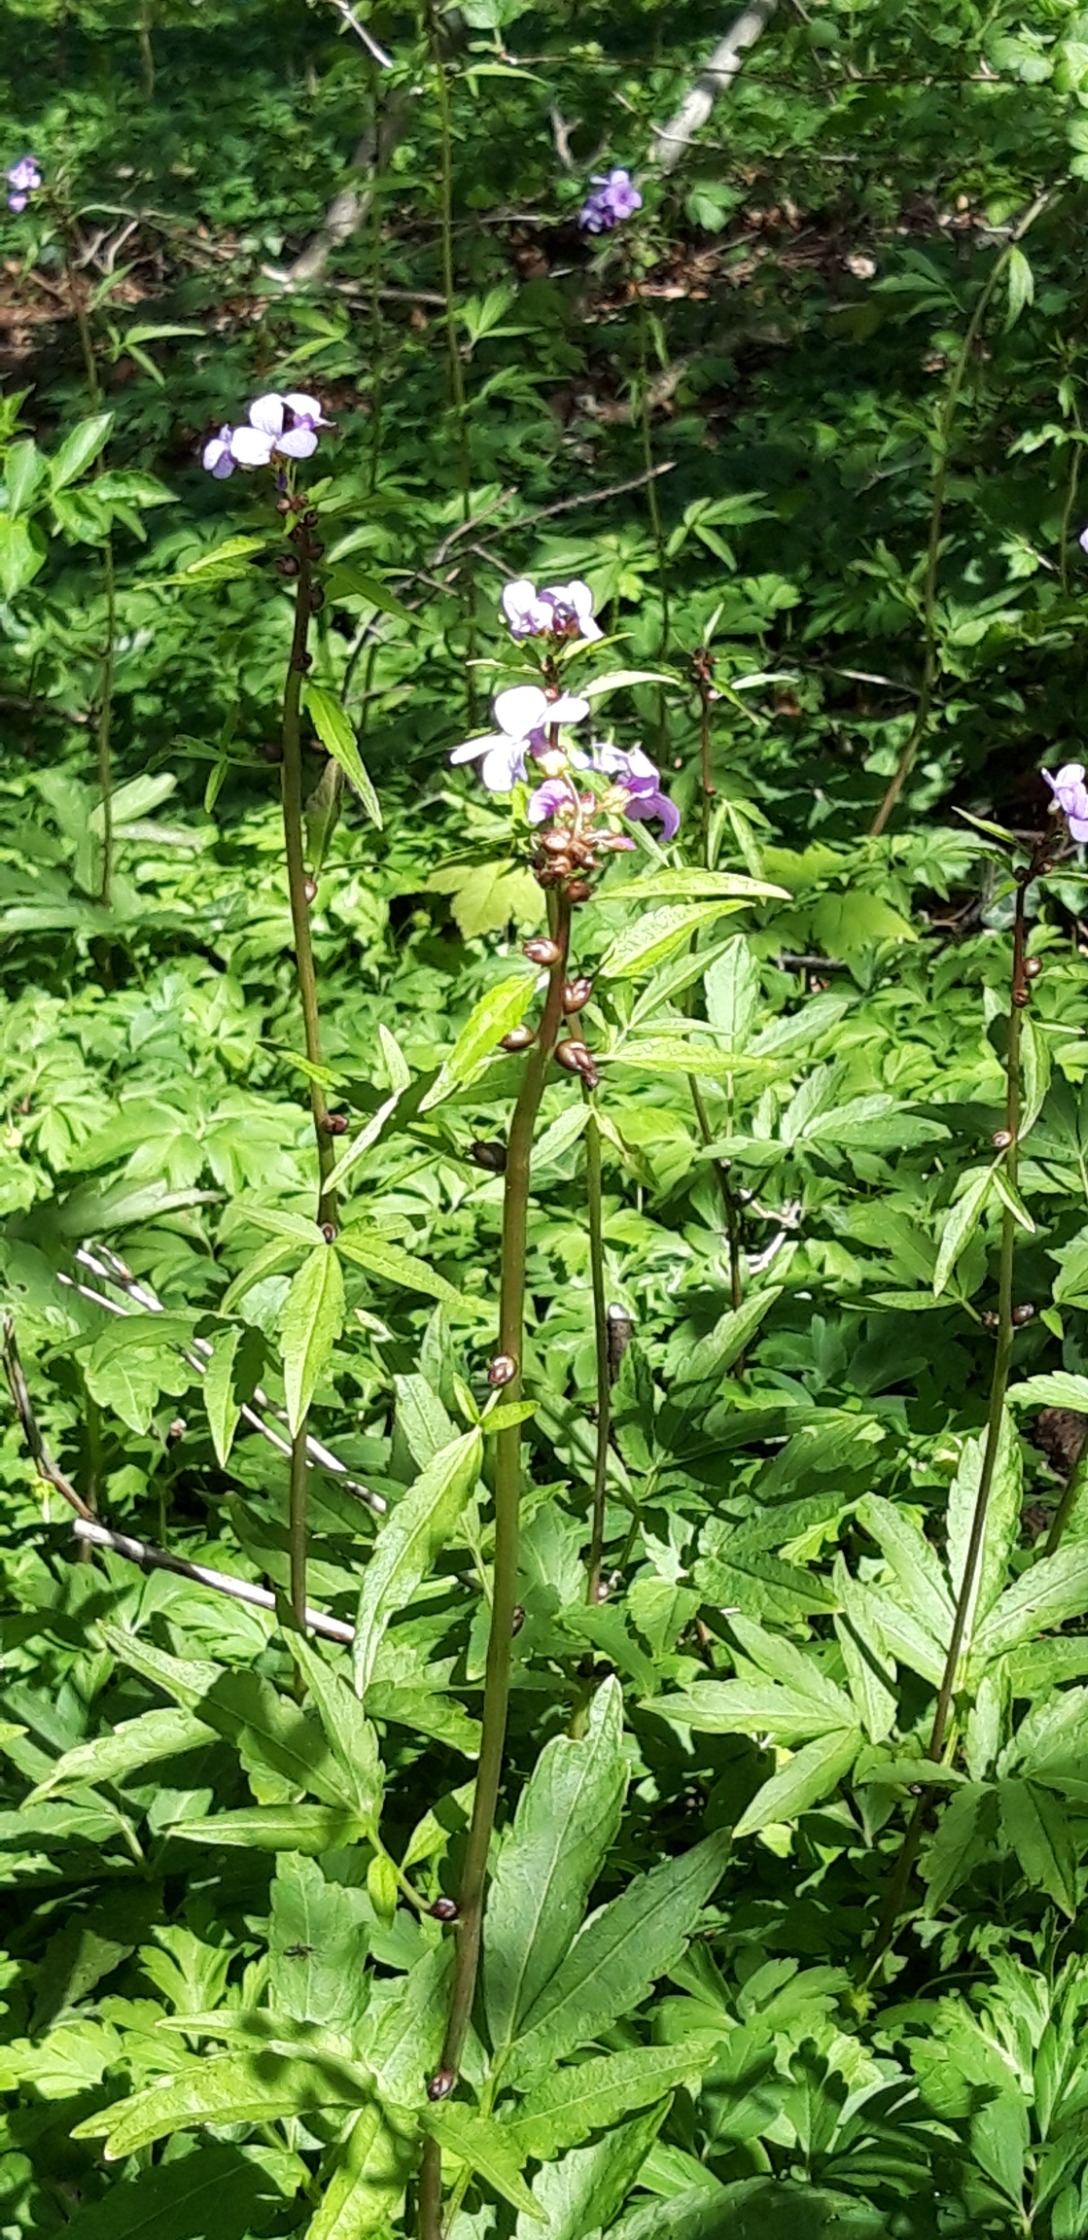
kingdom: Plantae
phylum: Tracheophyta
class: Magnoliopsida
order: Brassicales
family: Brassicaceae
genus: Cardamine
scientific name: Cardamine bulbifera
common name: Tandrod
